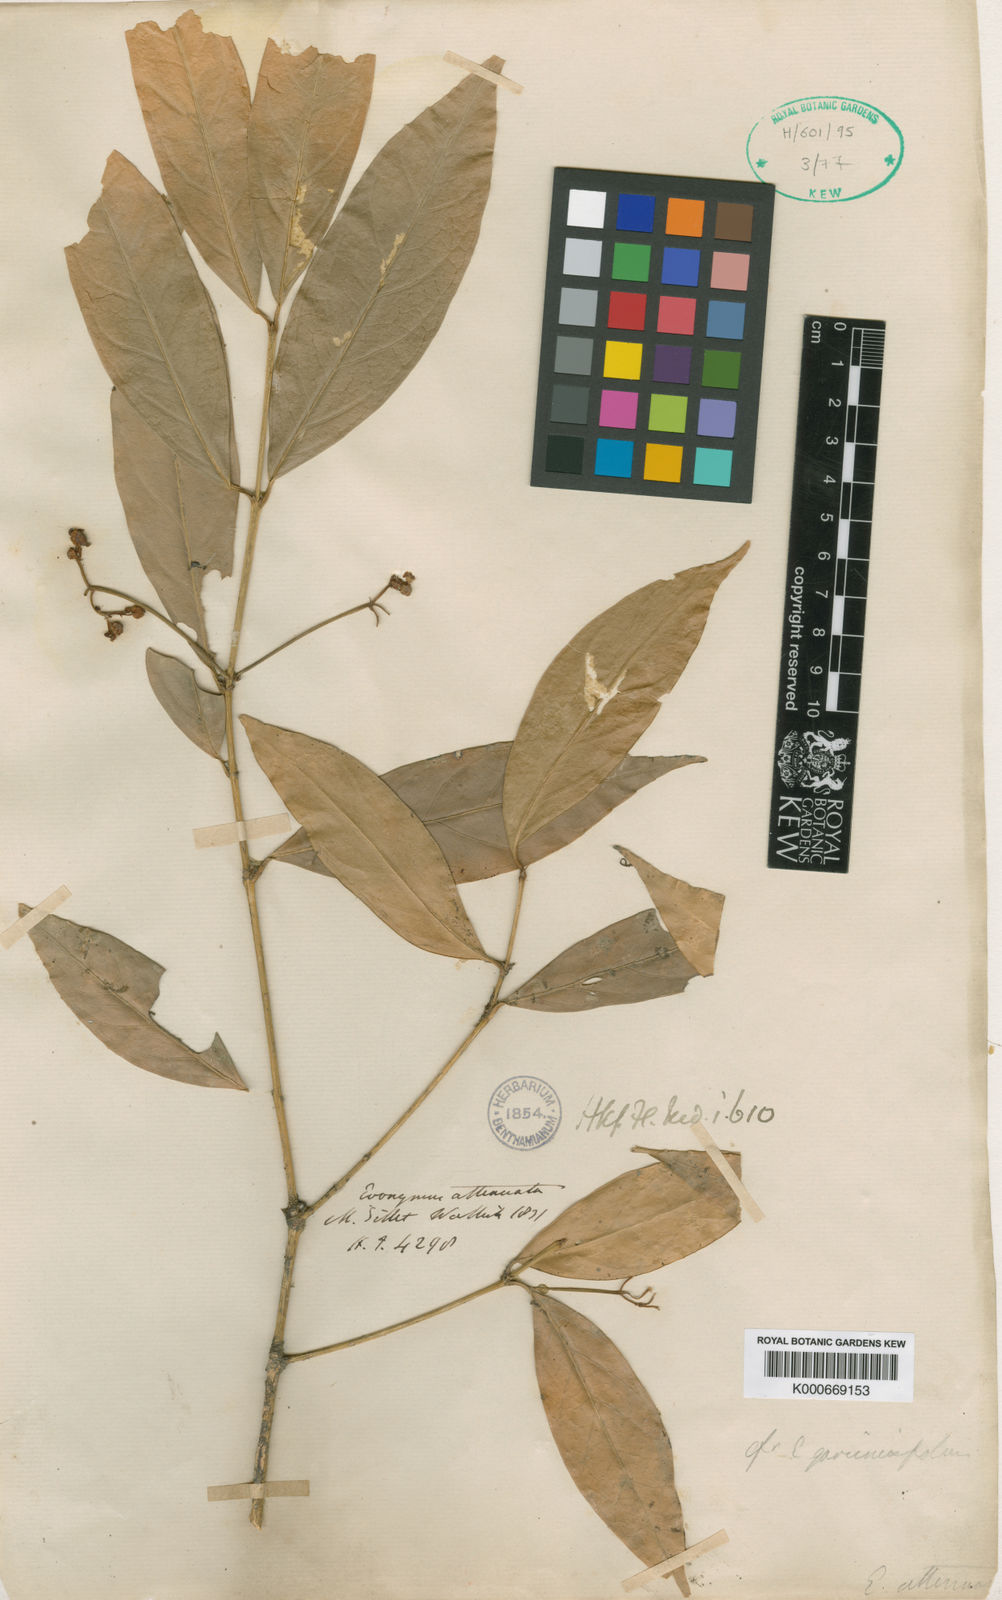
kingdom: Plantae
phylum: Tracheophyta
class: Magnoliopsida
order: Celastrales
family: Celastraceae
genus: Euonymus
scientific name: Euonymus attenuatus
